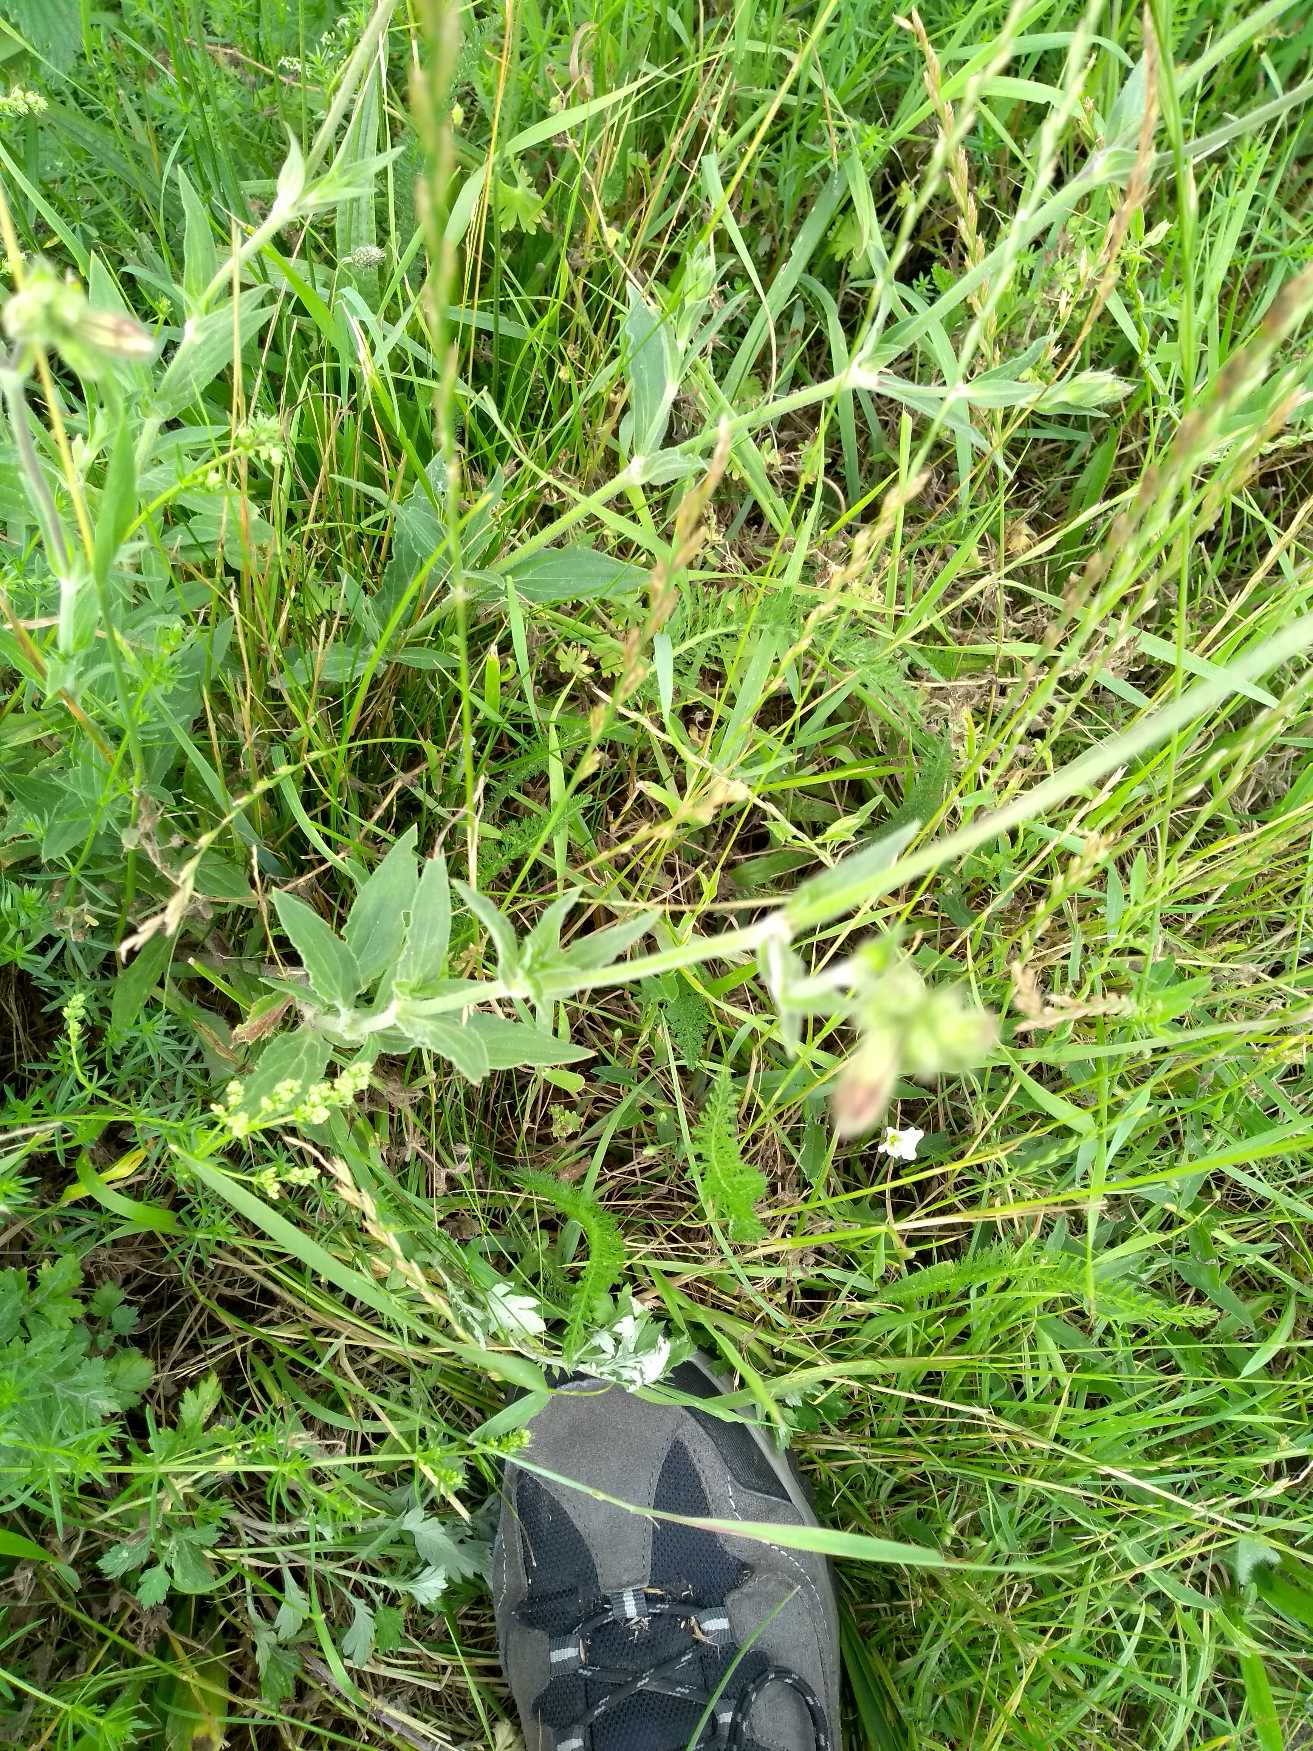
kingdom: Plantae
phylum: Tracheophyta
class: Magnoliopsida
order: Caryophyllales
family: Caryophyllaceae
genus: Silene
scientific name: Silene latifolia
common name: Aftenpragtstjerne
